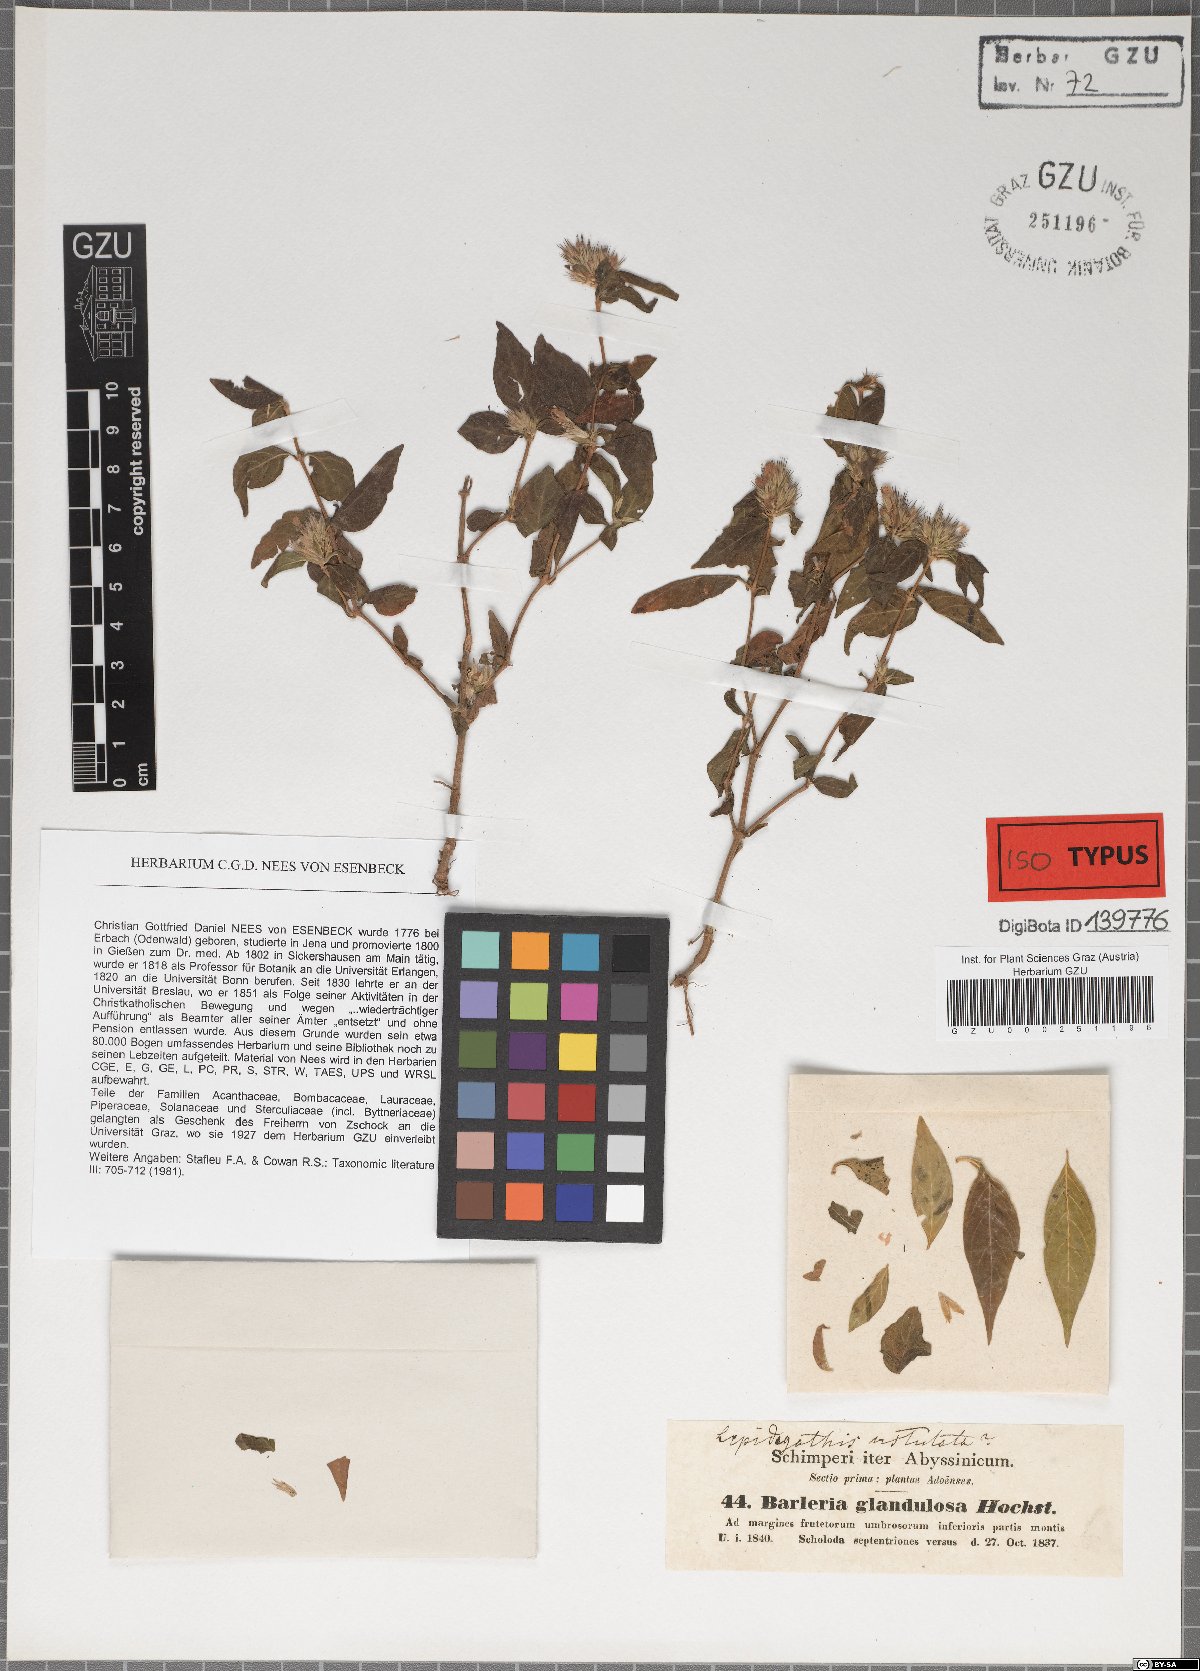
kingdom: Plantae
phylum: Tracheophyta
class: Magnoliopsida
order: Lamiales
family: Acanthaceae
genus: Lepidagathis
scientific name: Lepidagathis glandulosa
